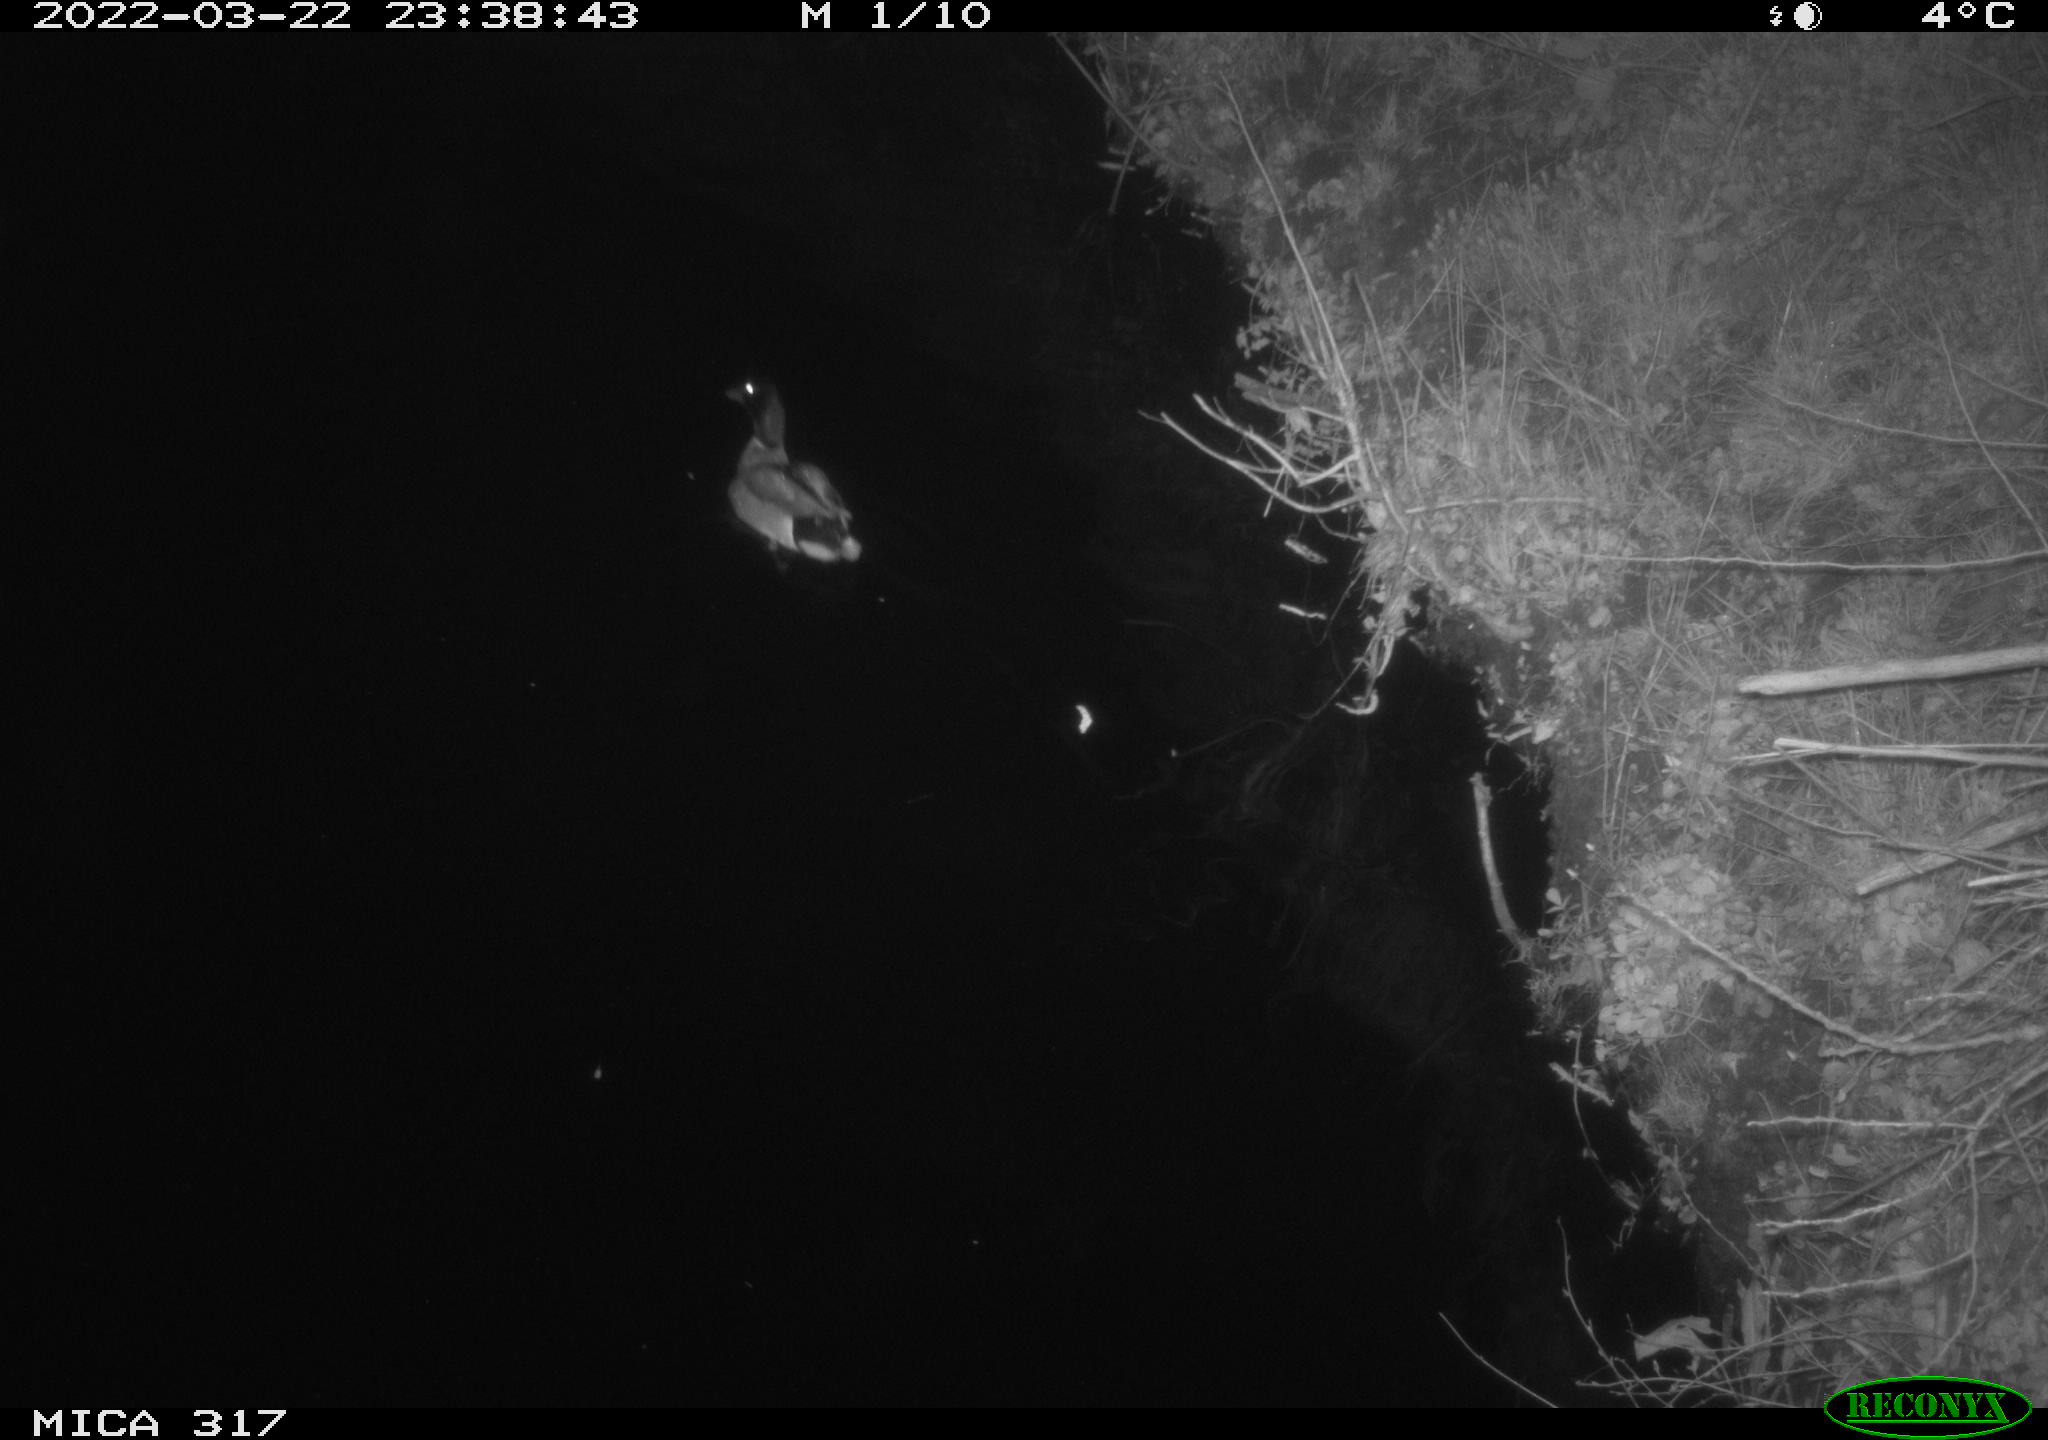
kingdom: Animalia
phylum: Chordata
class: Aves
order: Anseriformes
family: Anatidae
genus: Anas
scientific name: Anas platyrhynchos
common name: Mallard
